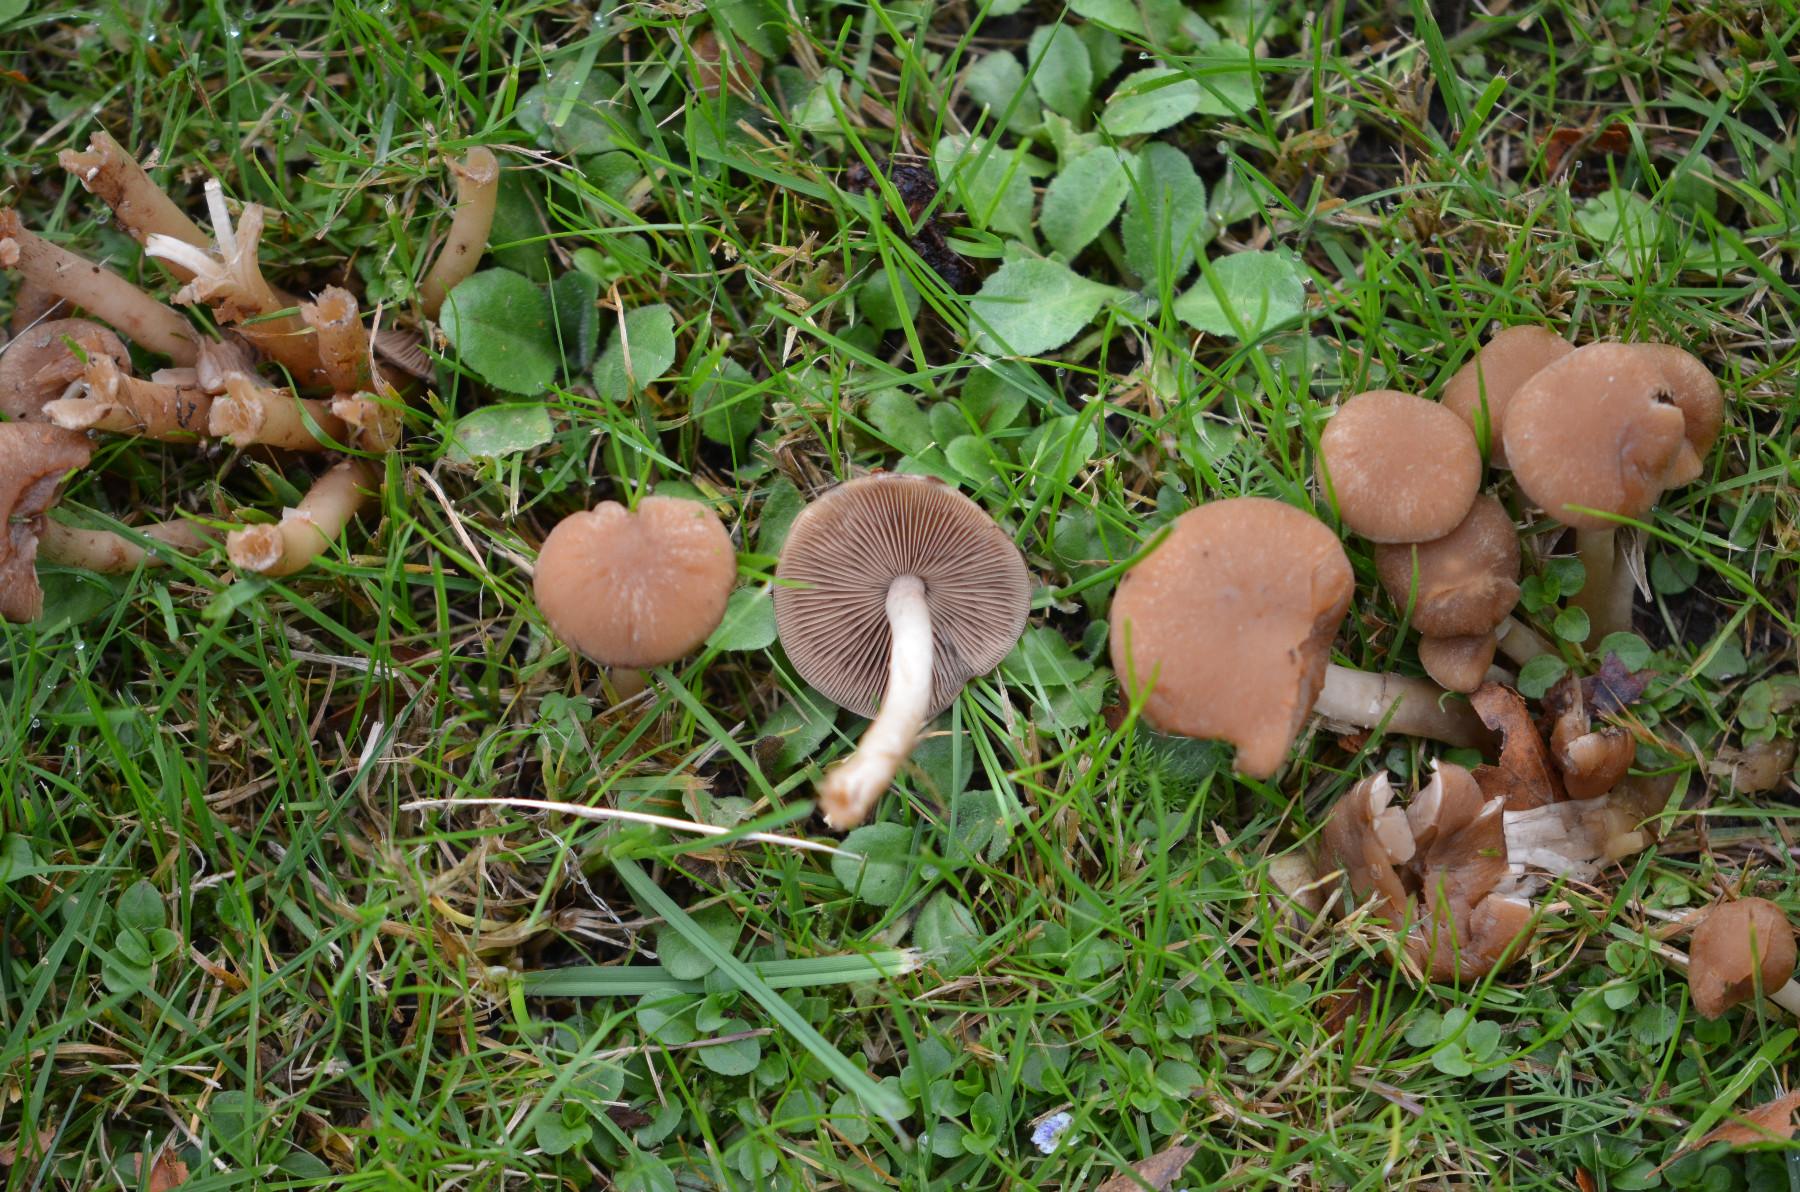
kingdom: Fungi
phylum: Basidiomycota
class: Agaricomycetes
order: Agaricales
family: Psathyrellaceae
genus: Psathyrella
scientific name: Psathyrella
